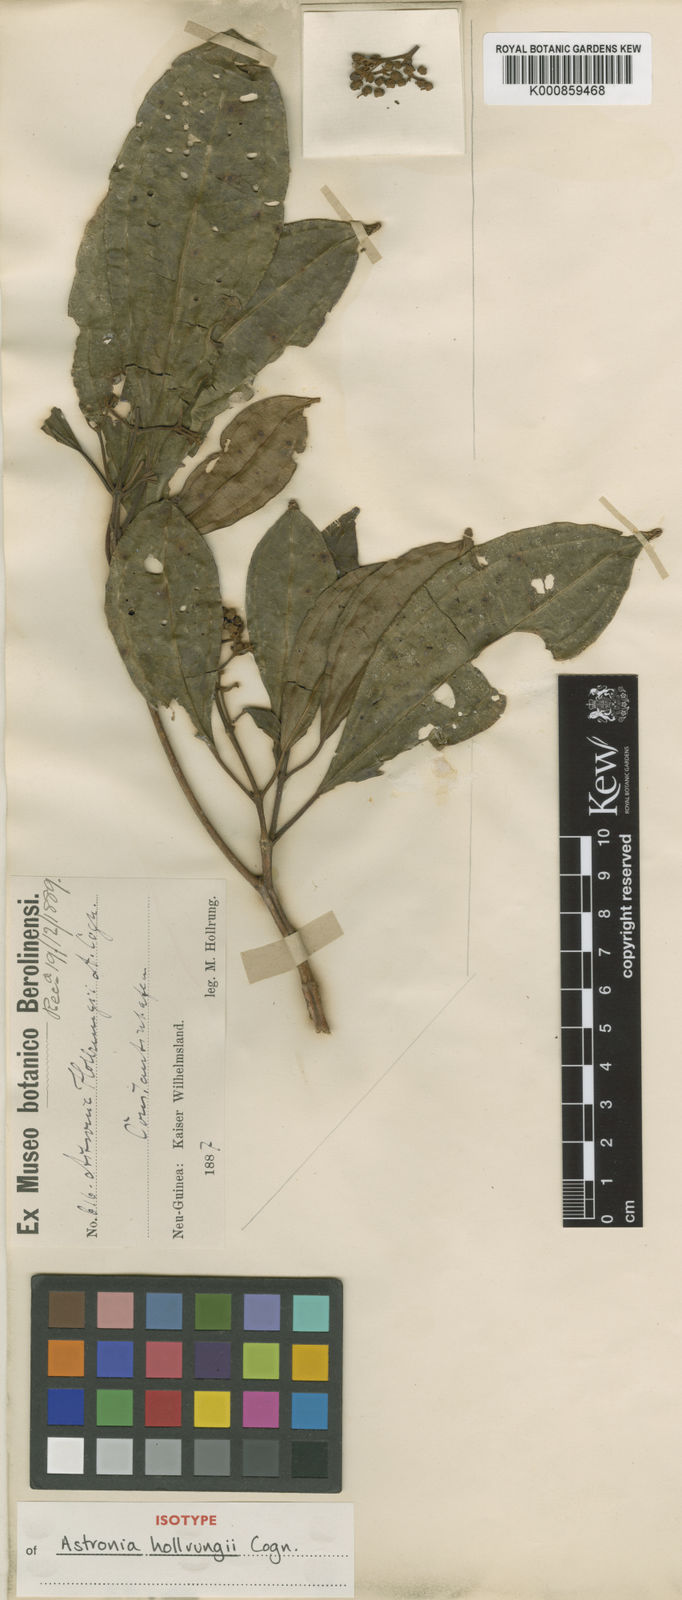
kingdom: Plantae
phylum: Tracheophyta
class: Magnoliopsida
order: Myrtales
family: Melastomataceae
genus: Astronia
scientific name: Astronia hollrungii
